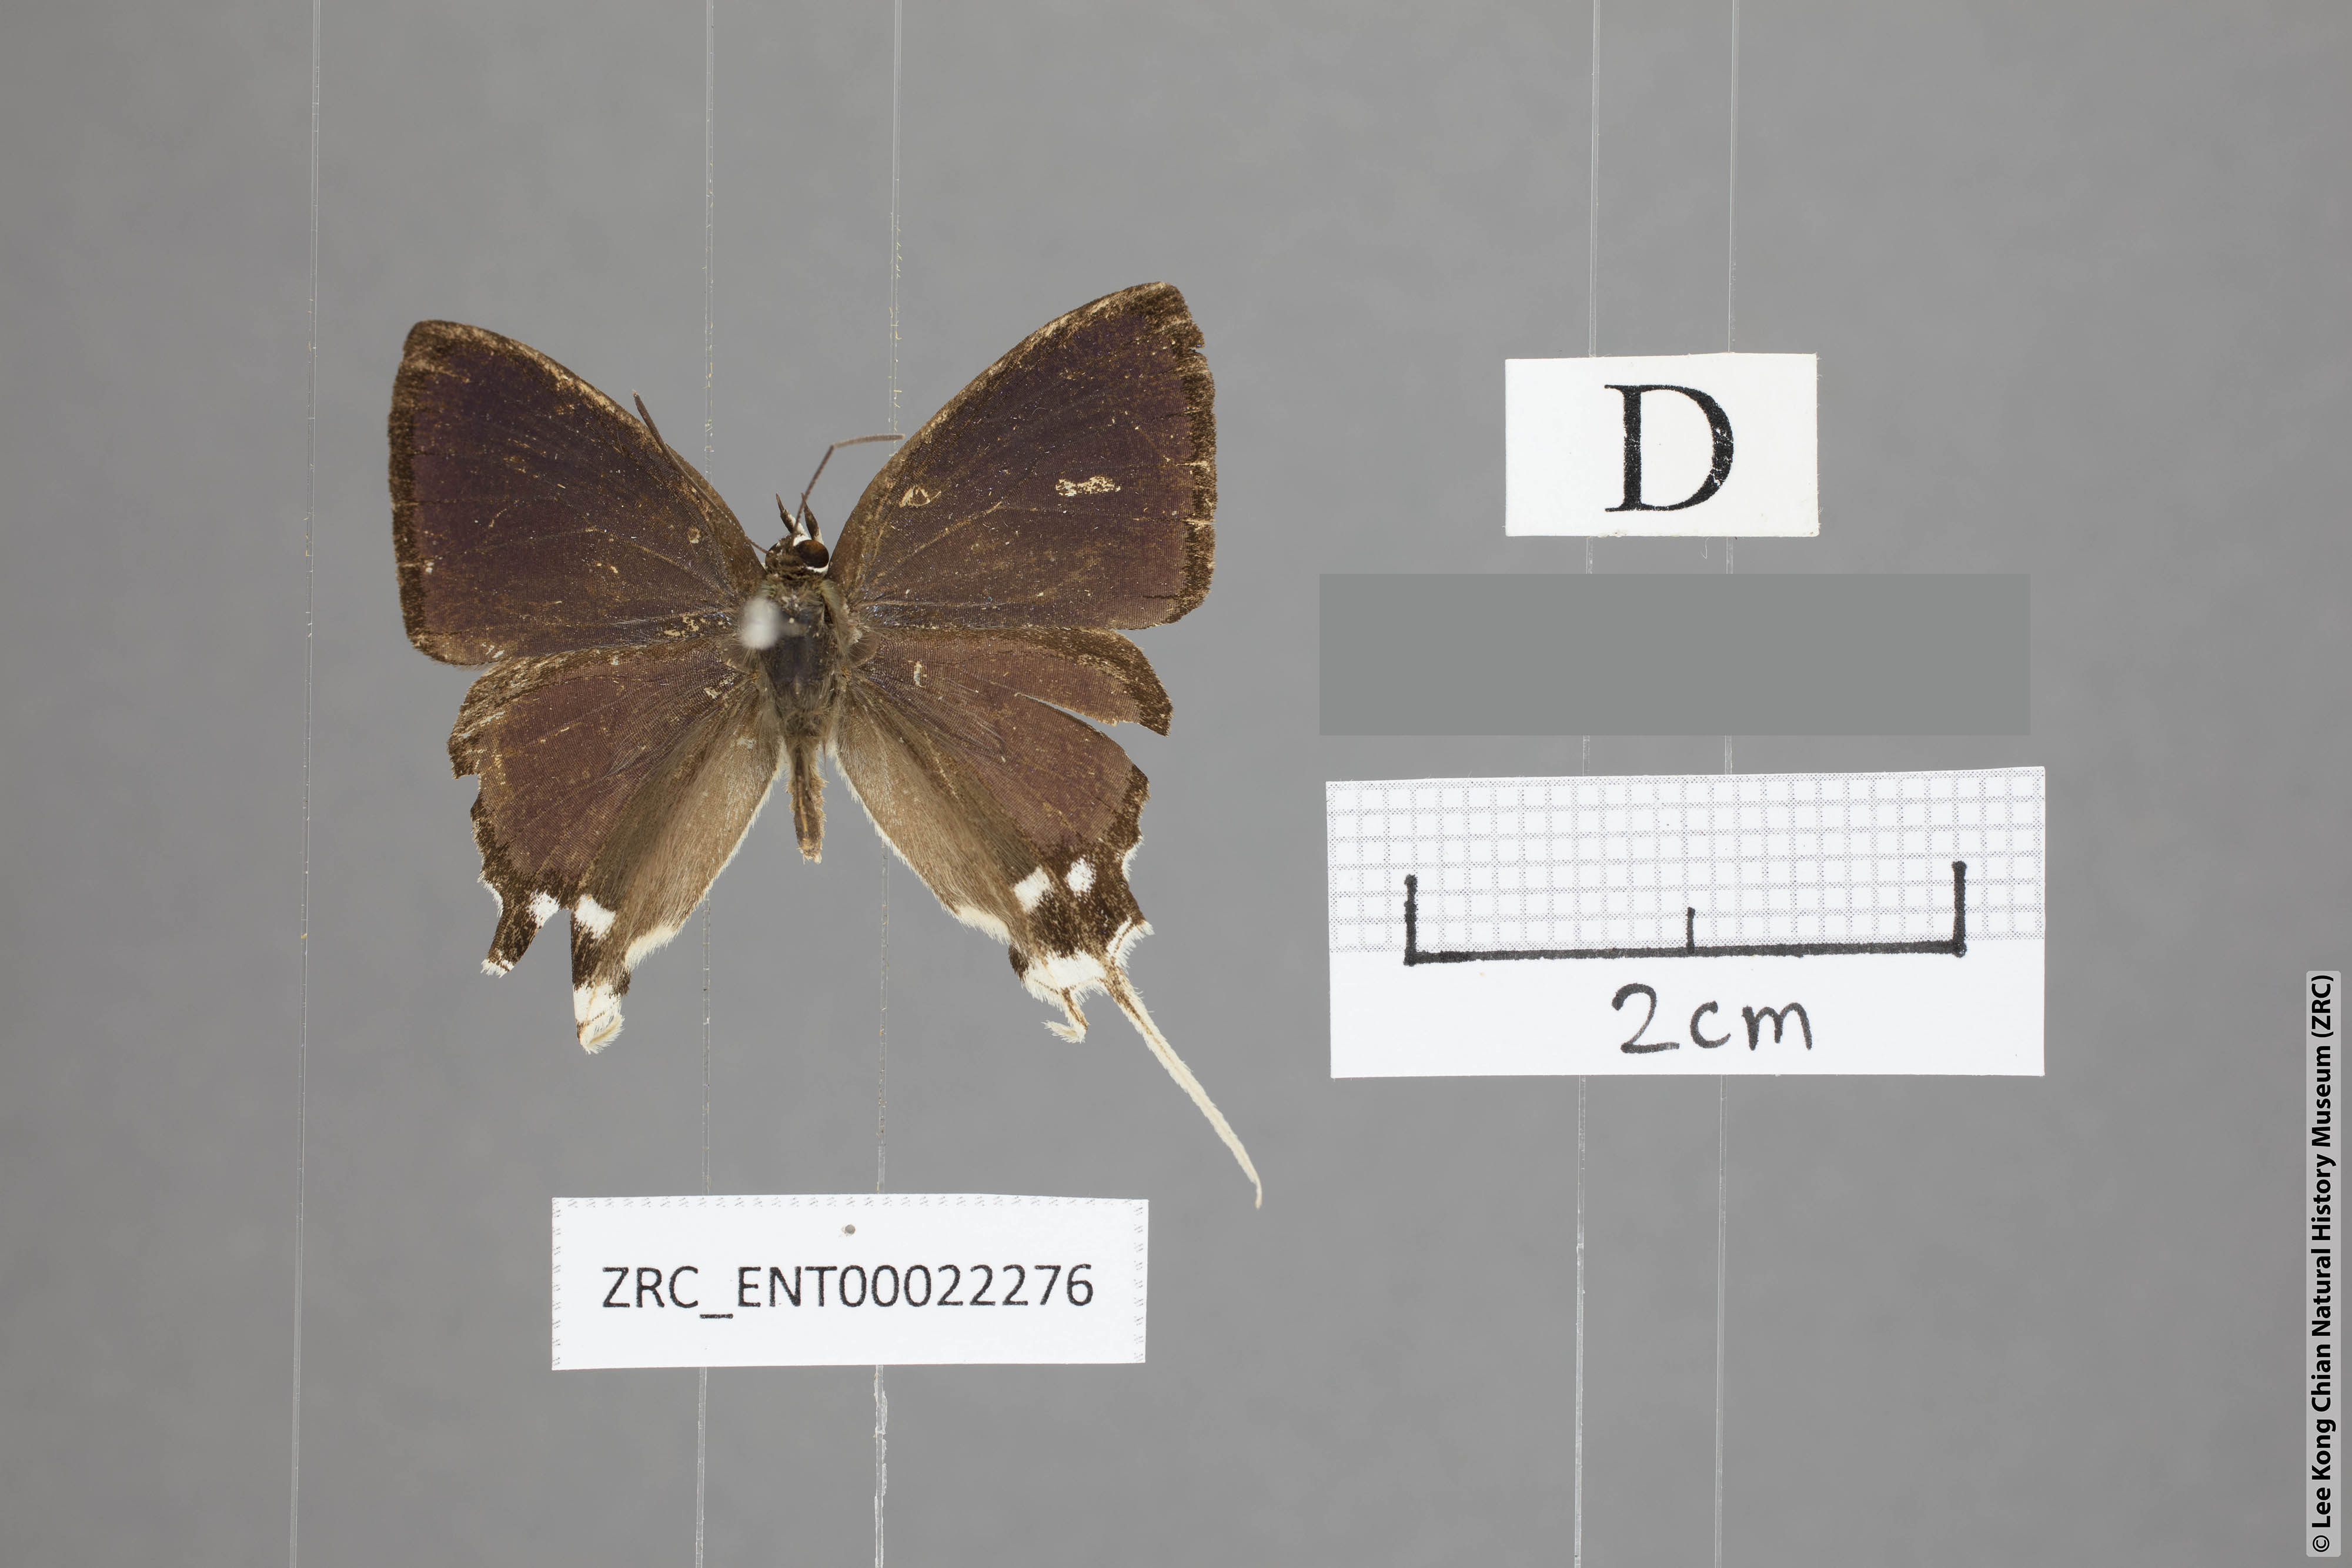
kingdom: Animalia
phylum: Arthropoda
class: Insecta
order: Lepidoptera
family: Lycaenidae
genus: Ticherra
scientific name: Ticherra acte
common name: Blue imperial
